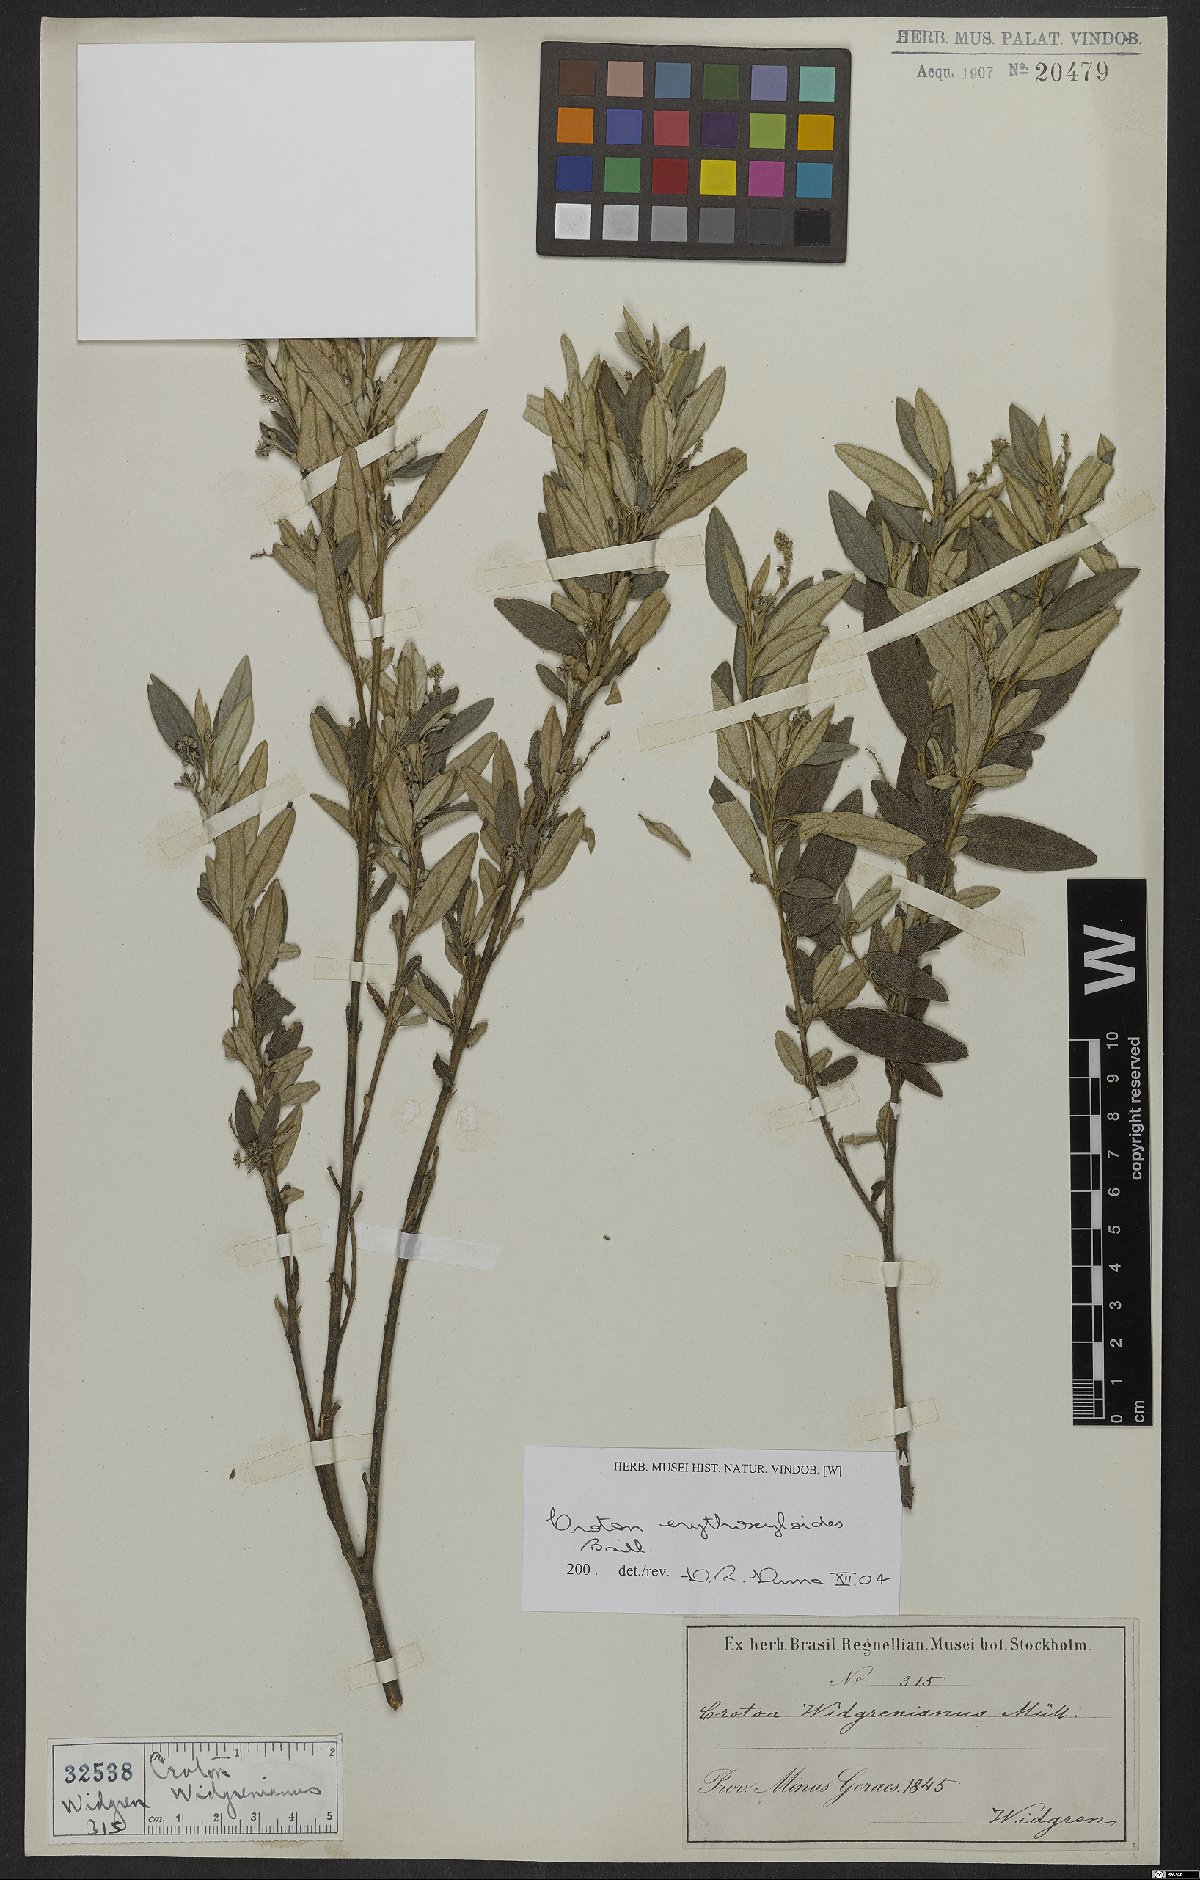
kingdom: Plantae
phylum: Tracheophyta
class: Magnoliopsida
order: Malpighiales
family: Euphorbiaceae
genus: Croton
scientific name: Croton erythroxyloides
